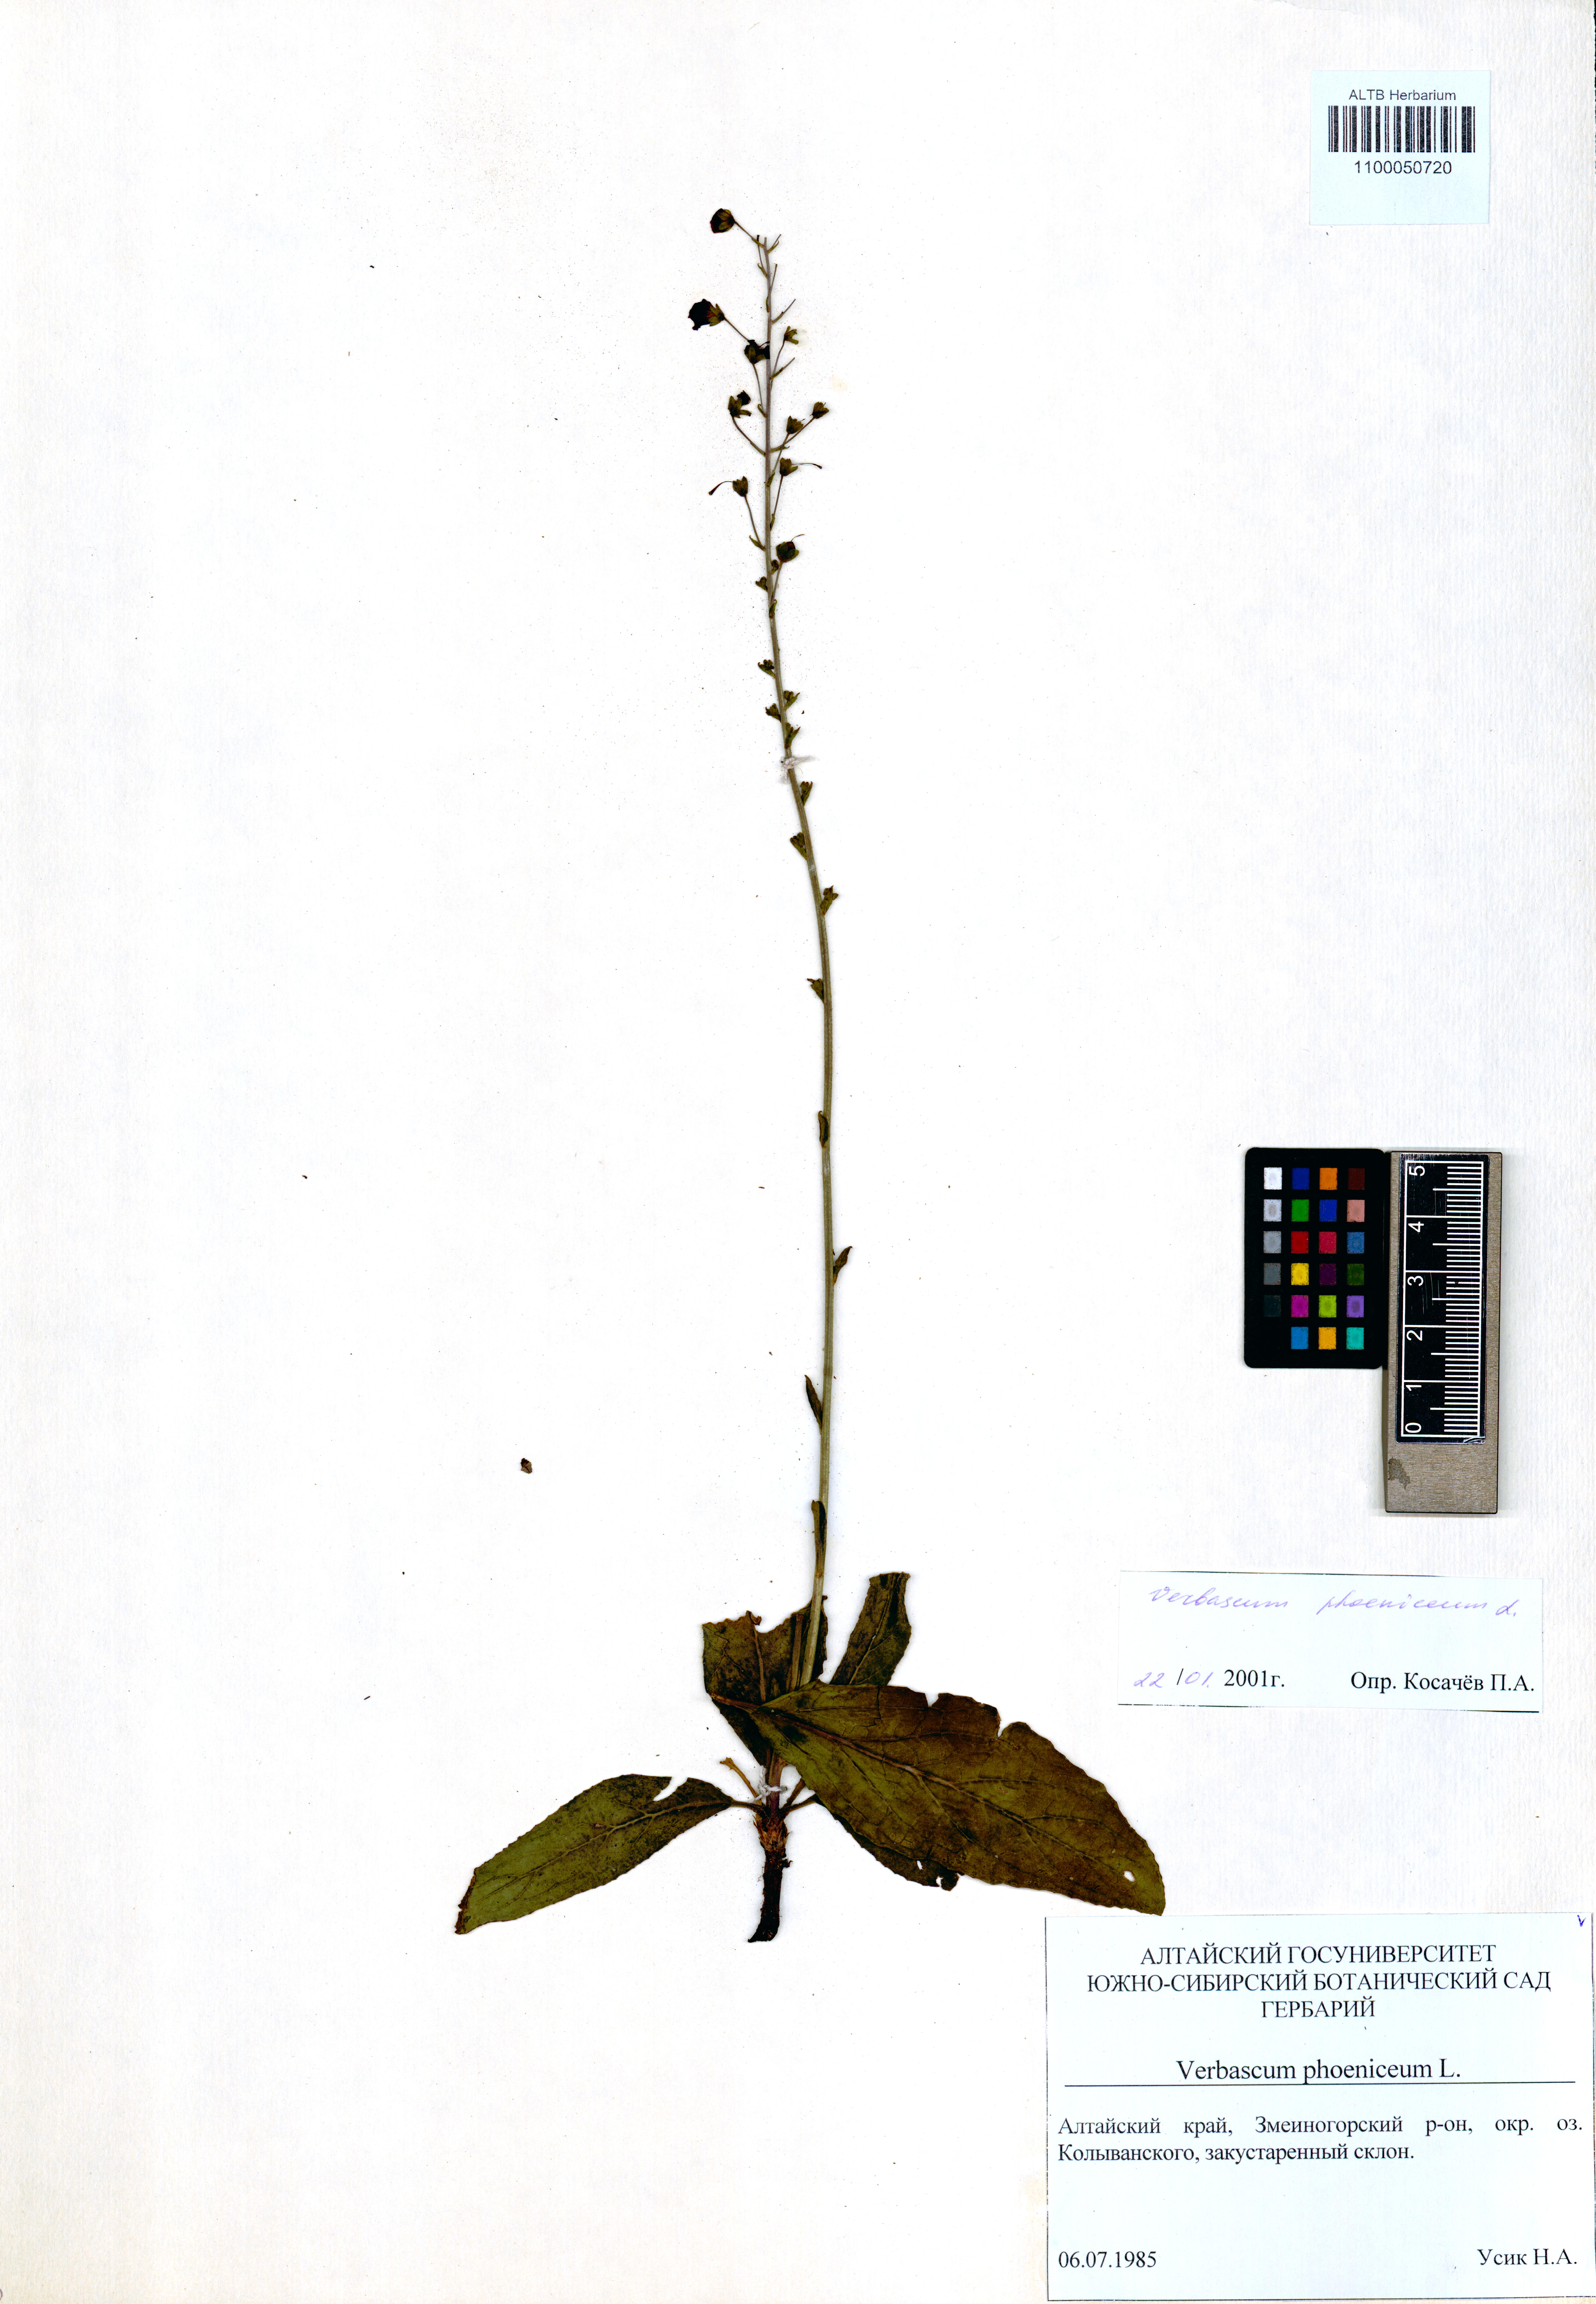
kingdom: Plantae
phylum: Tracheophyta
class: Magnoliopsida
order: Lamiales
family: Scrophulariaceae
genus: Verbascum
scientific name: Verbascum phoeniceum
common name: Purple mullein
